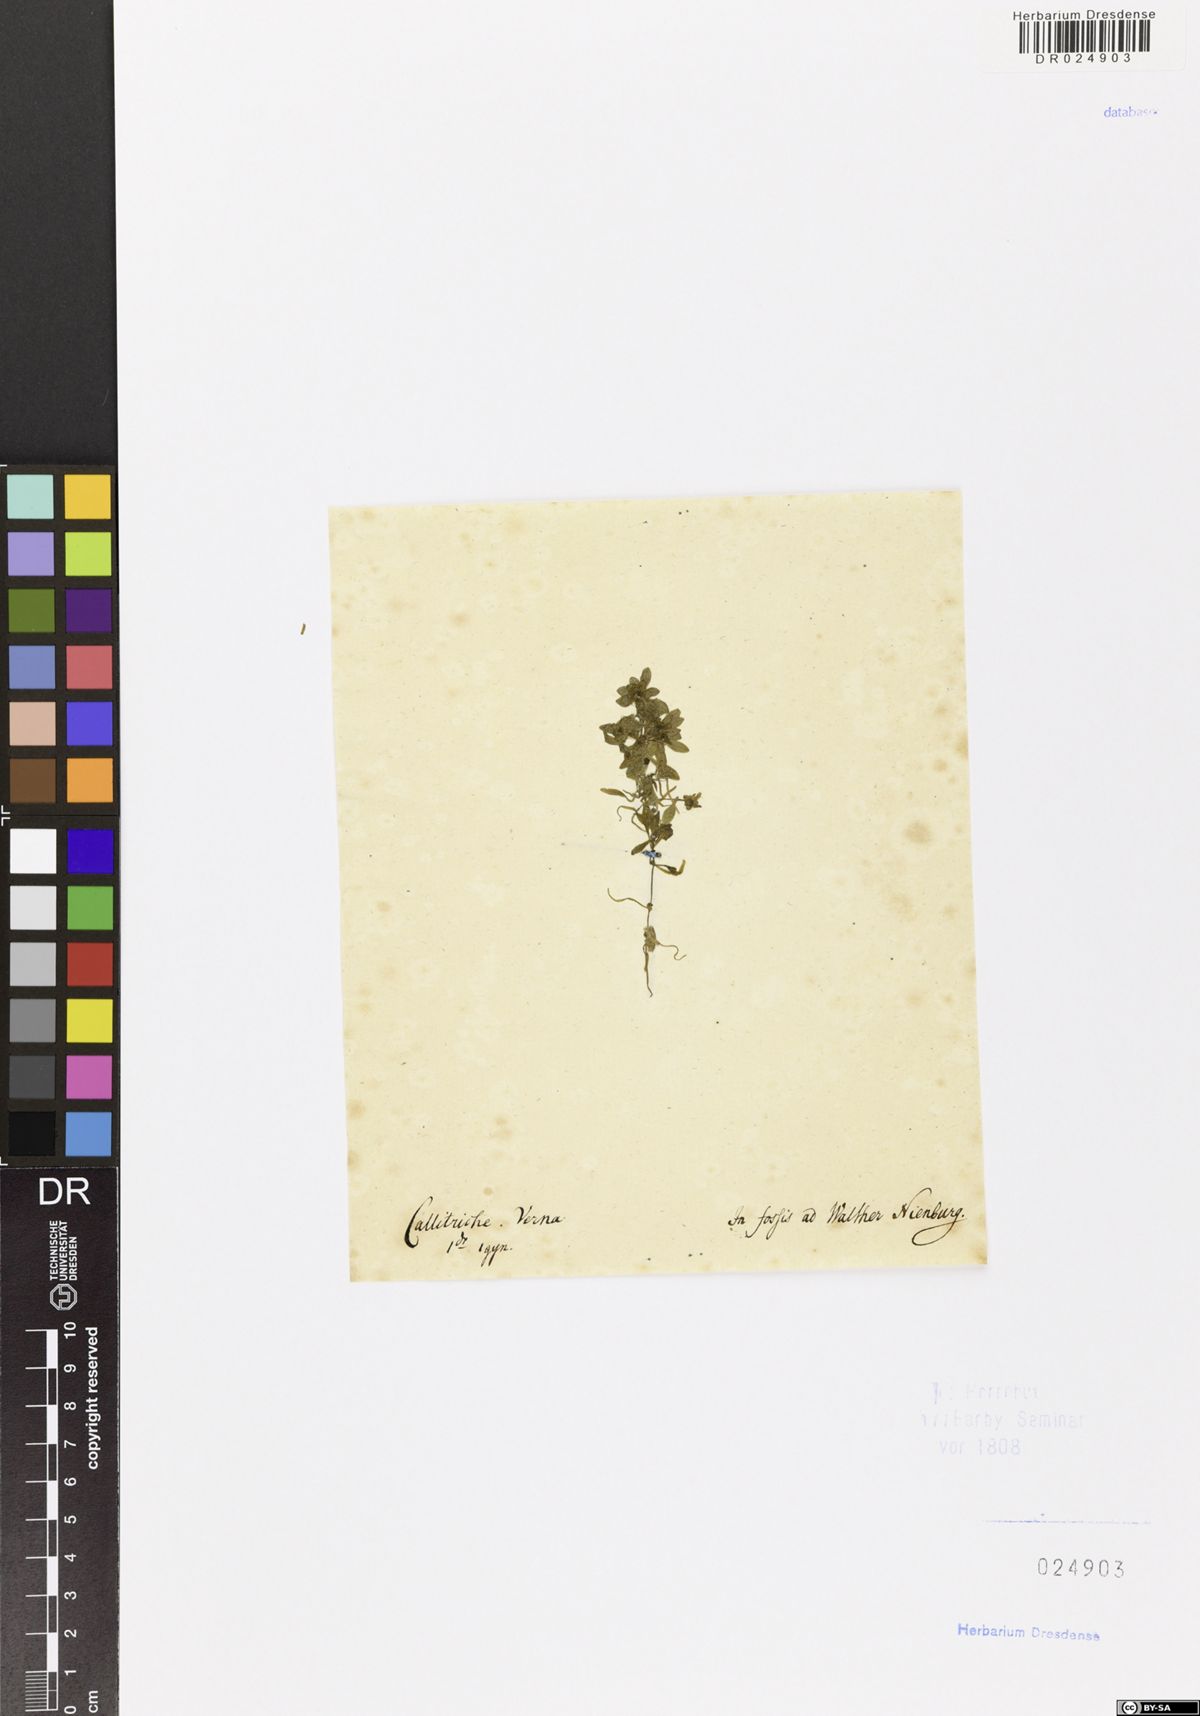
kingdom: Plantae
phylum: Tracheophyta
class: Magnoliopsida
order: Lamiales
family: Plantaginaceae
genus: Callitriche
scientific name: Callitriche palustris
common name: Spring water-starwort
